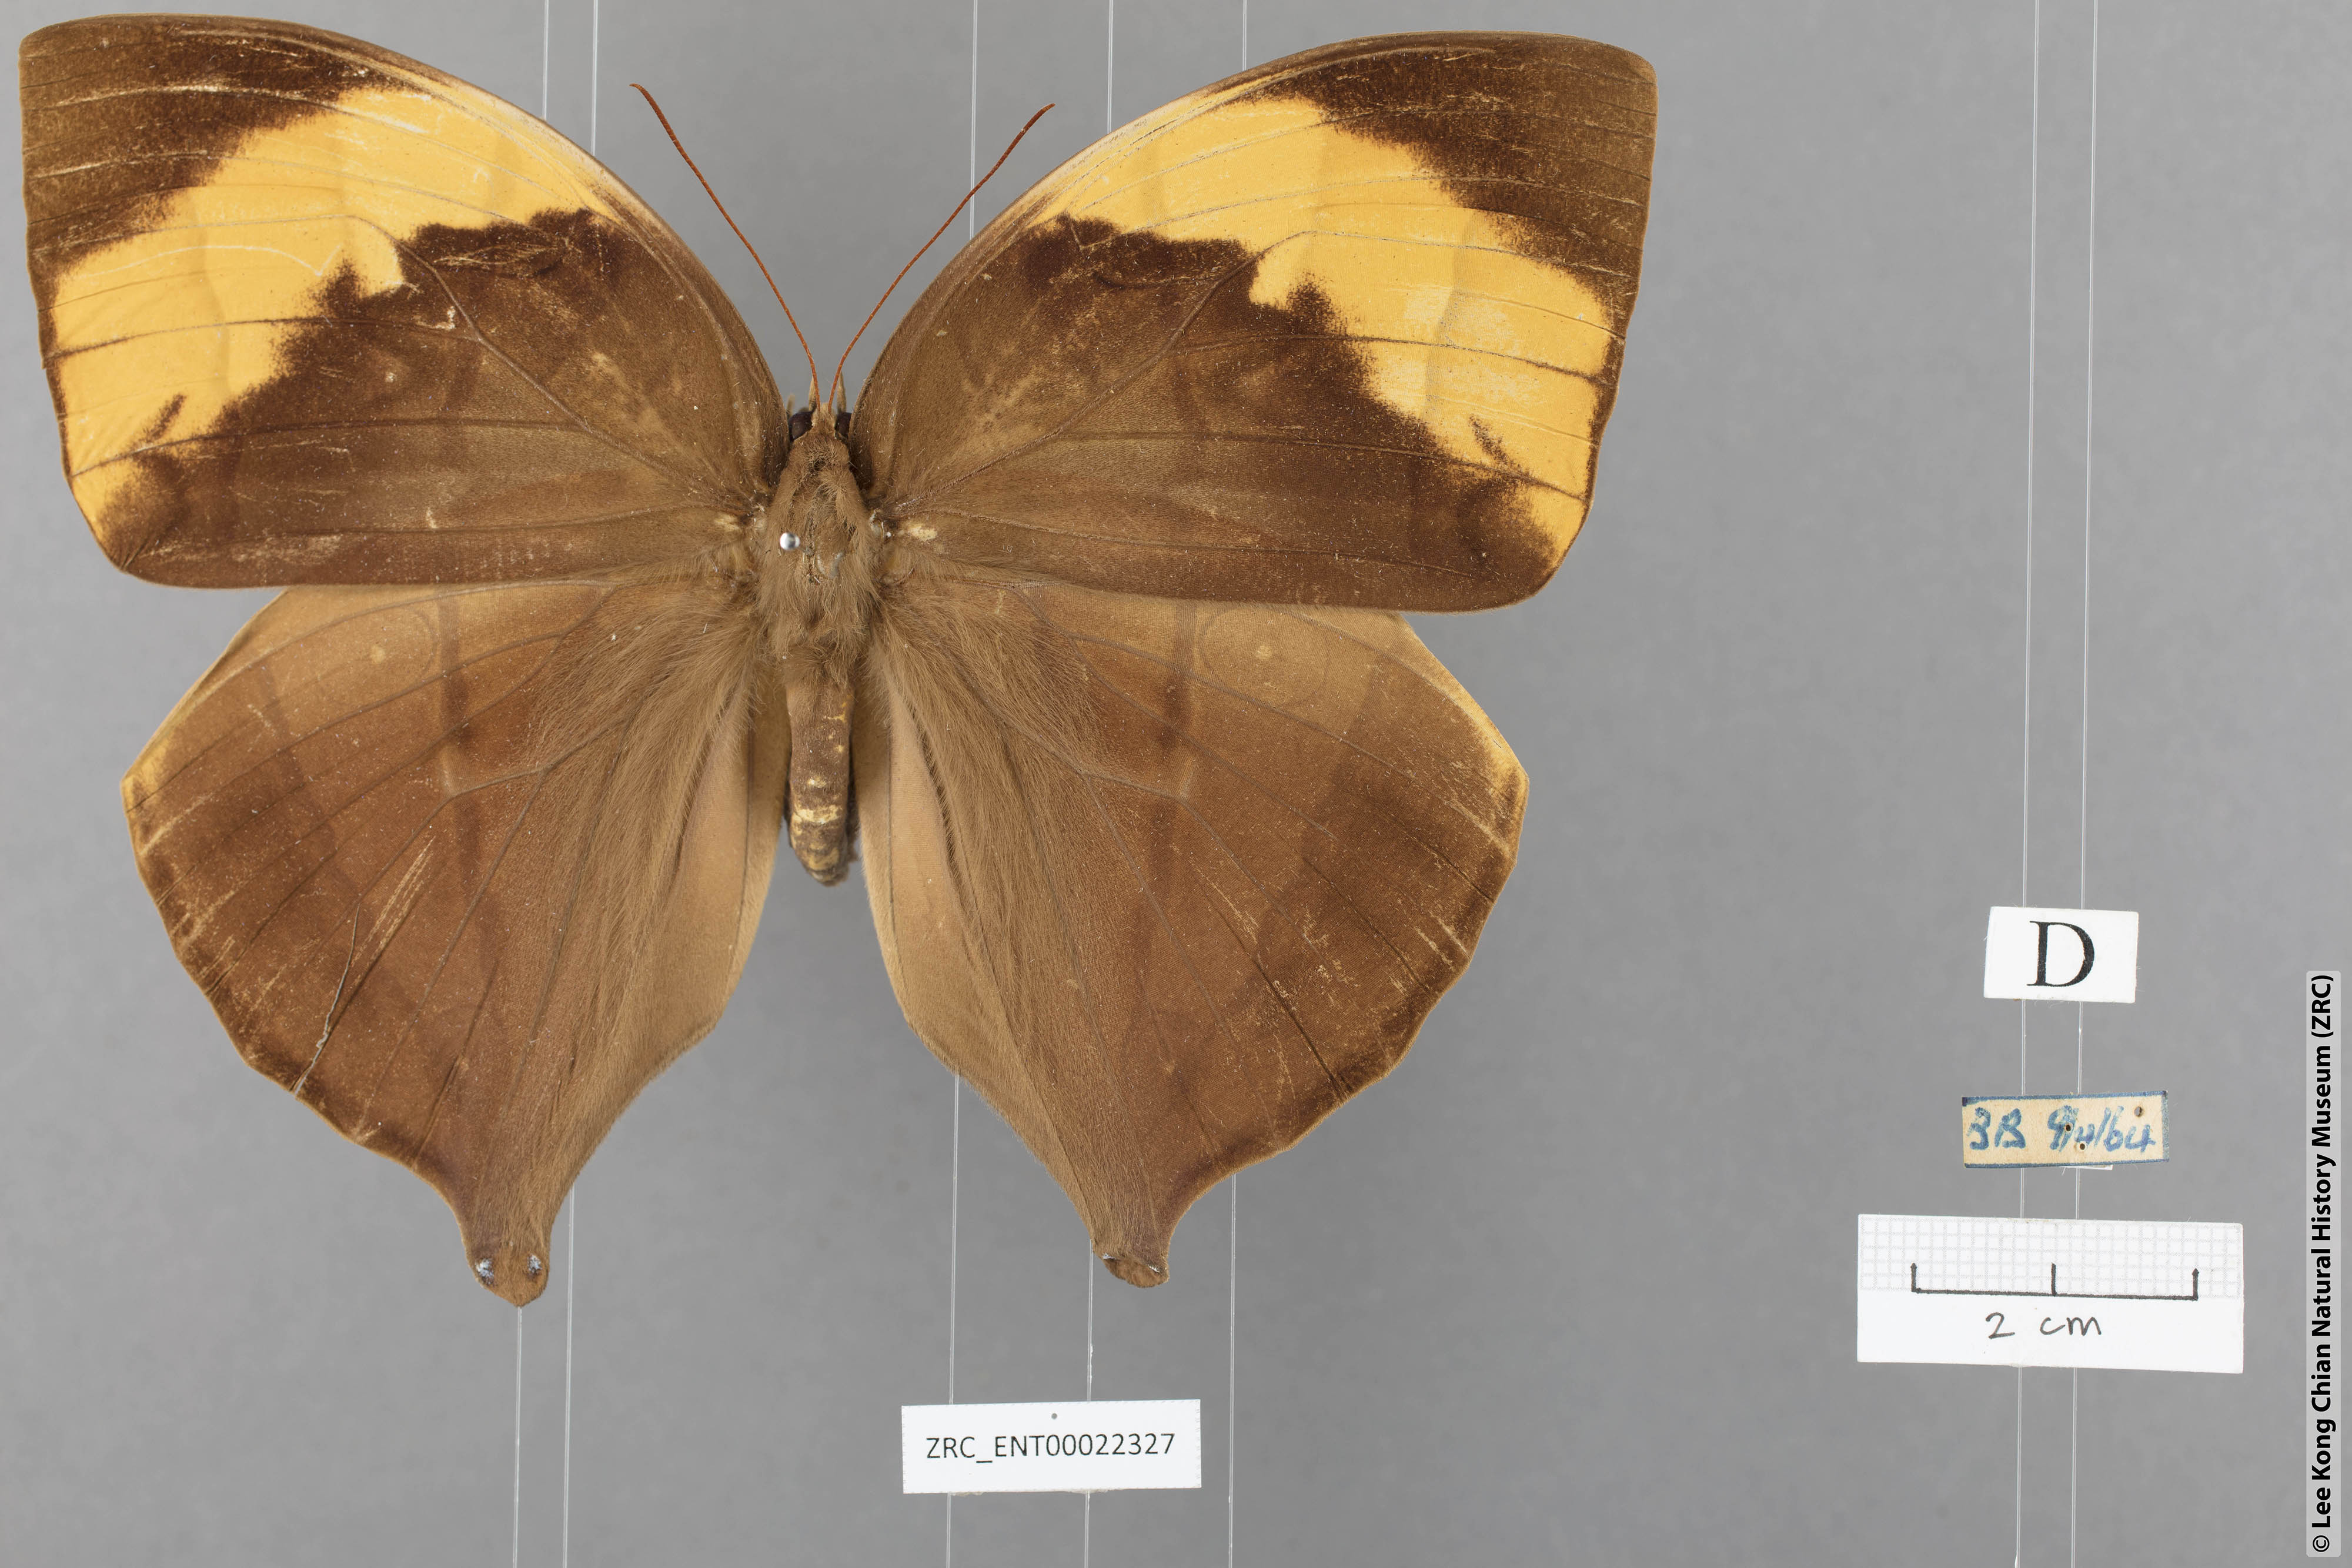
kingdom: Animalia
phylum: Arthropoda
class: Insecta
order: Lepidoptera
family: Nymphalidae
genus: Amathusia
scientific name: Amathusia
